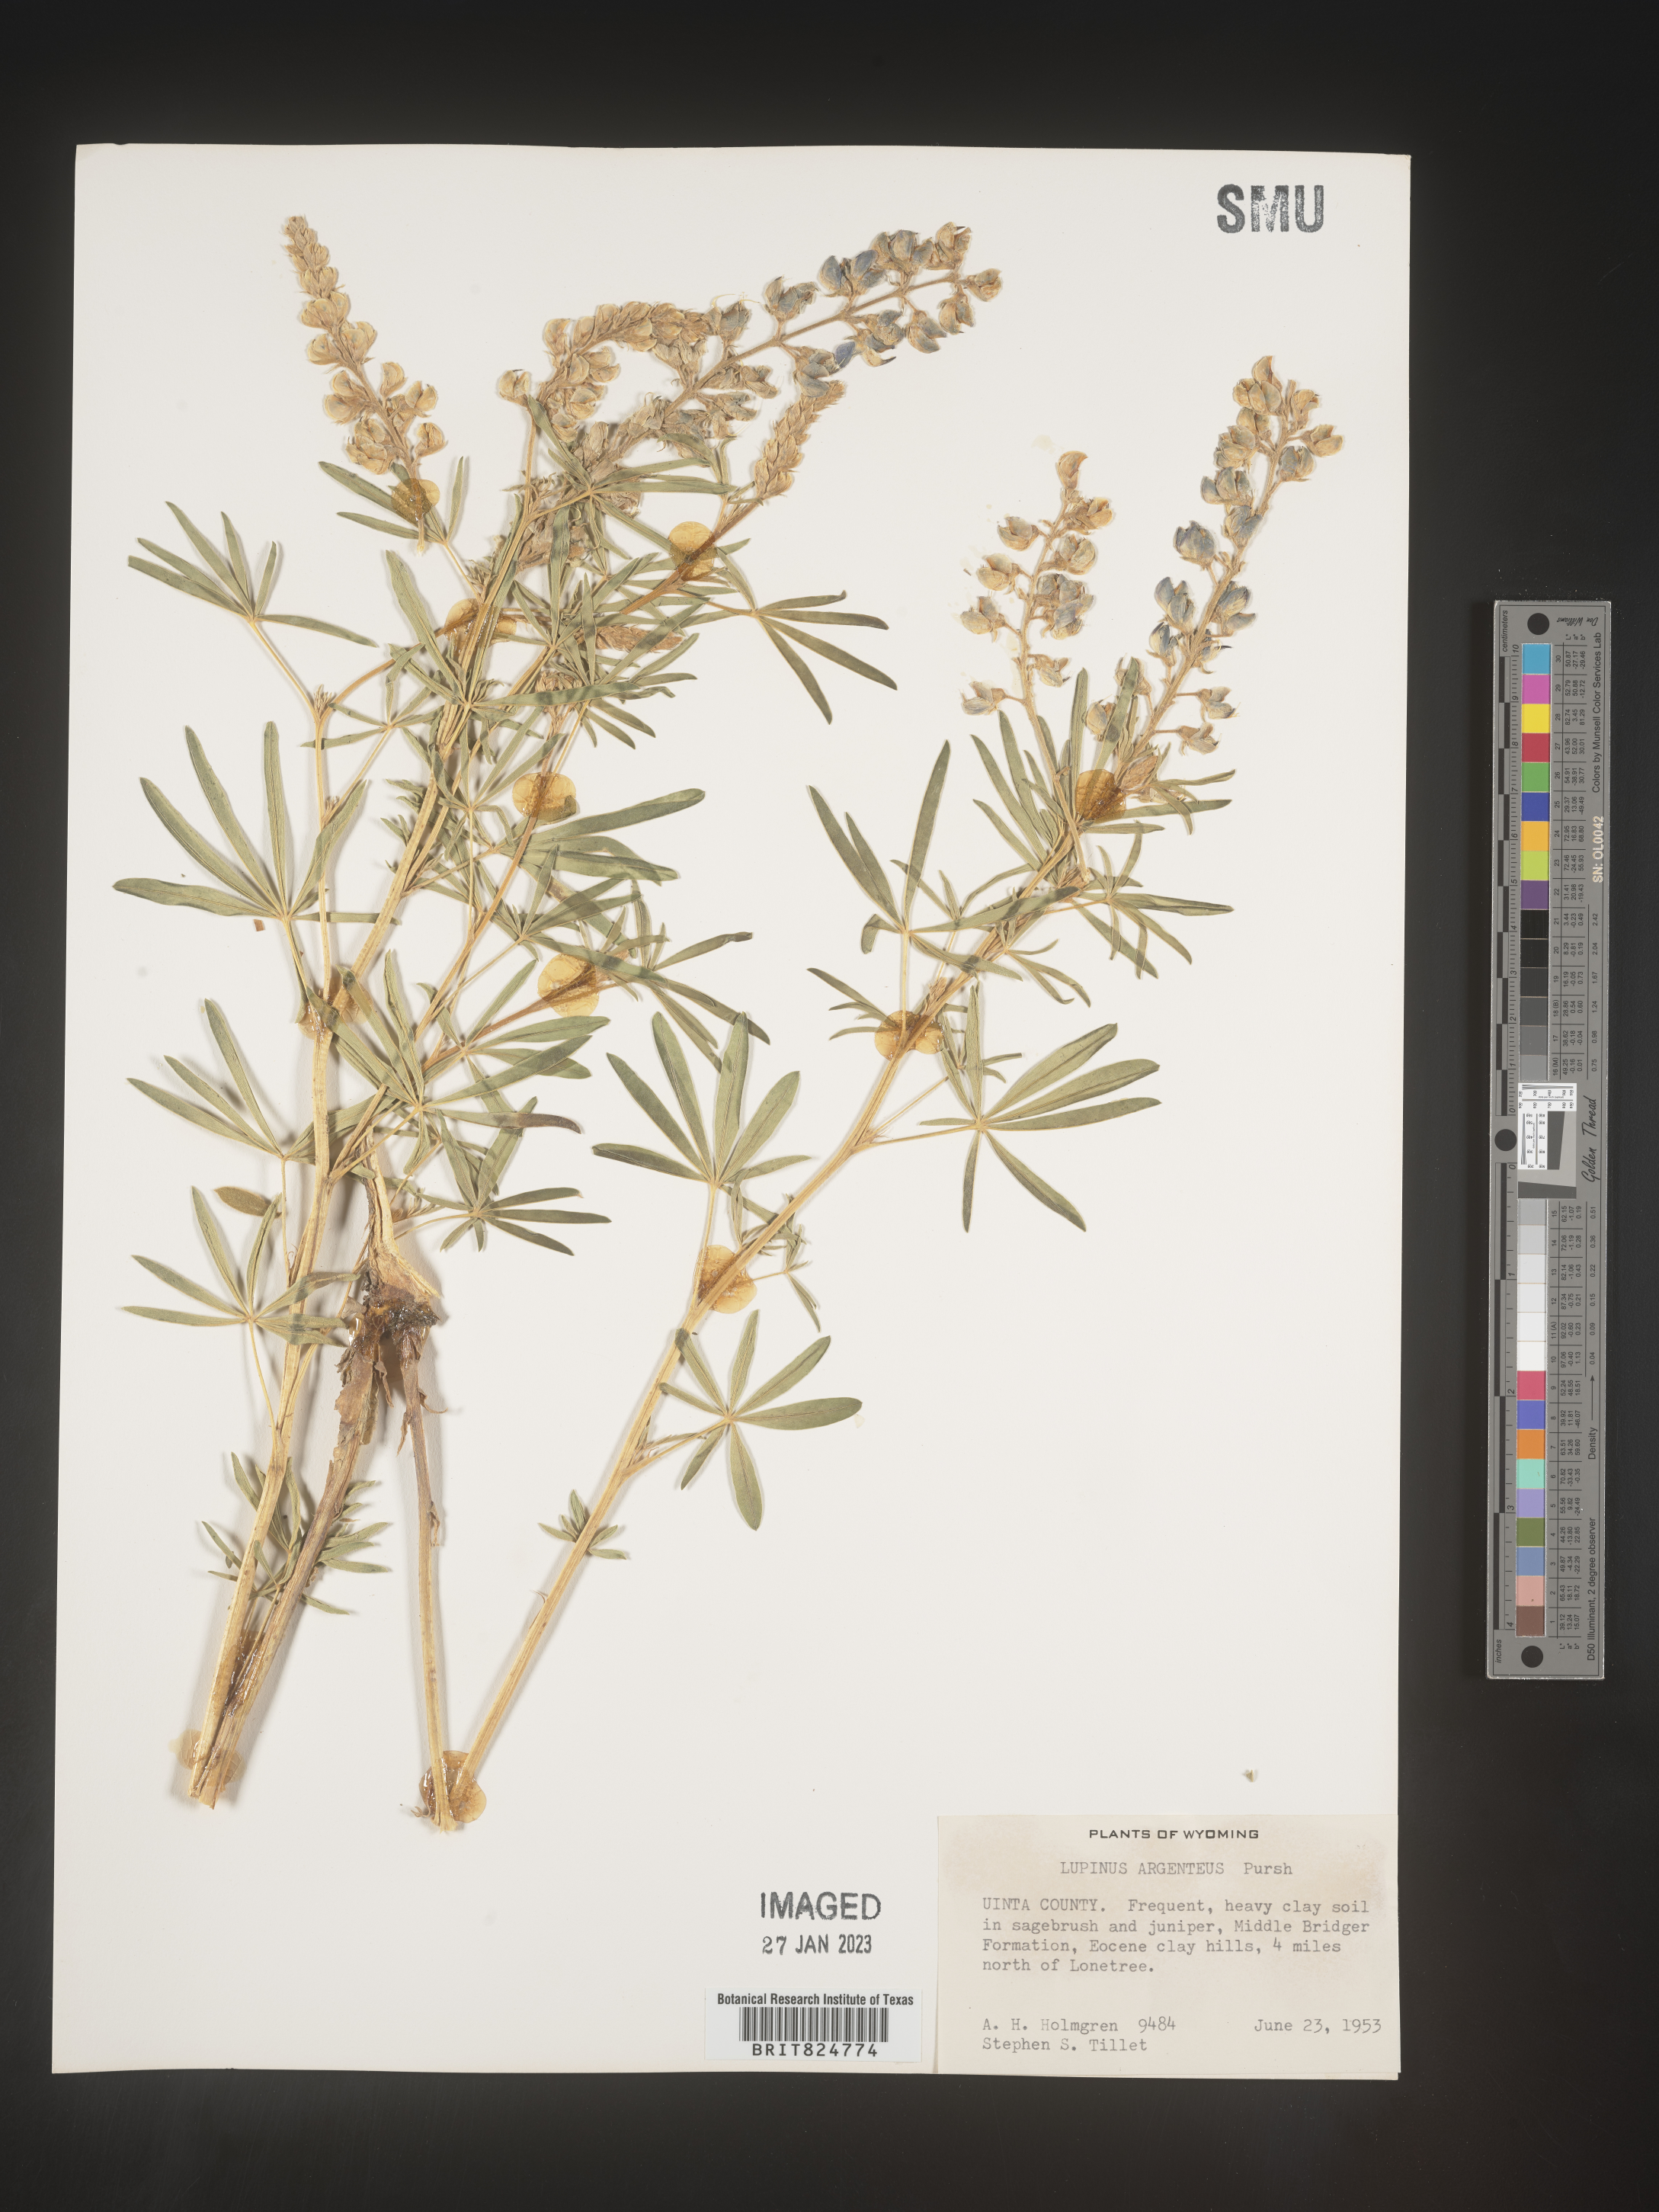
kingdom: Plantae
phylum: Tracheophyta
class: Magnoliopsida
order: Fabales
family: Fabaceae
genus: Lupinus
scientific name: Lupinus argenteus
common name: Silvery lupine
